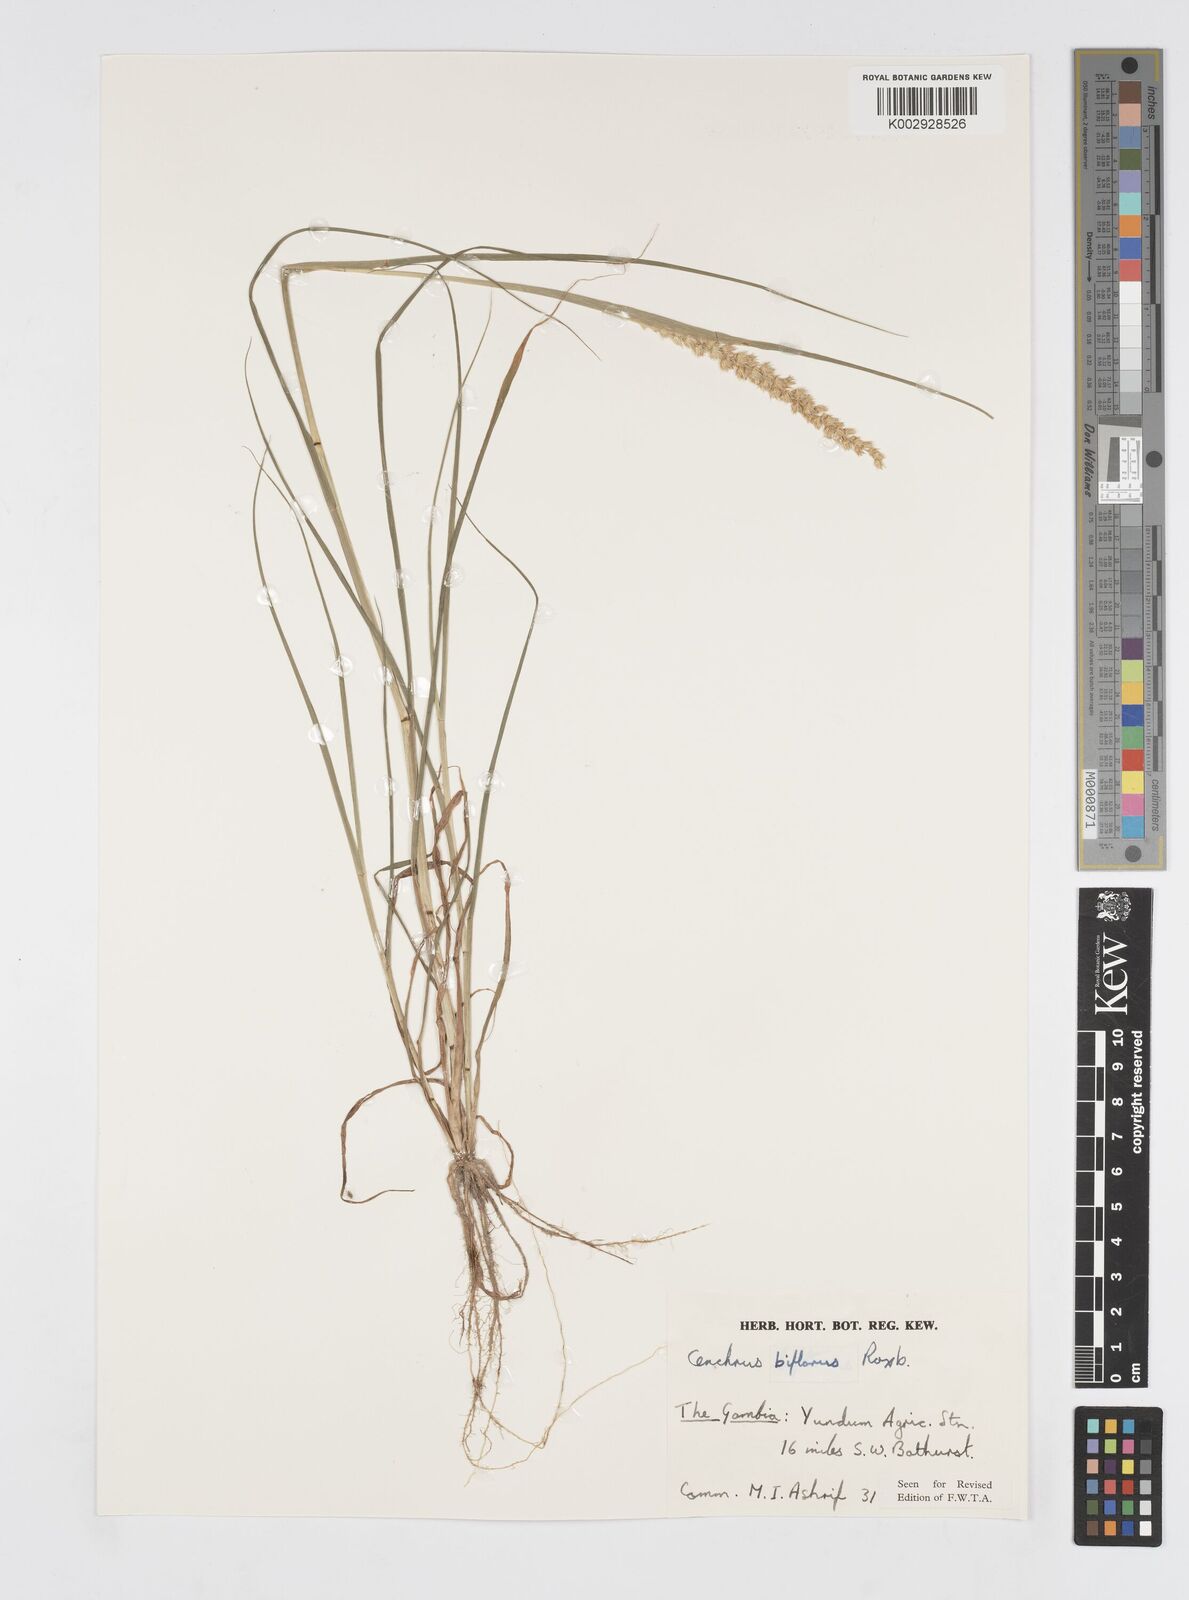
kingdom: Plantae
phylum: Tracheophyta
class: Liliopsida
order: Poales
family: Poaceae
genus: Cenchrus
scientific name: Cenchrus biflorus
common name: Indian sandbur
